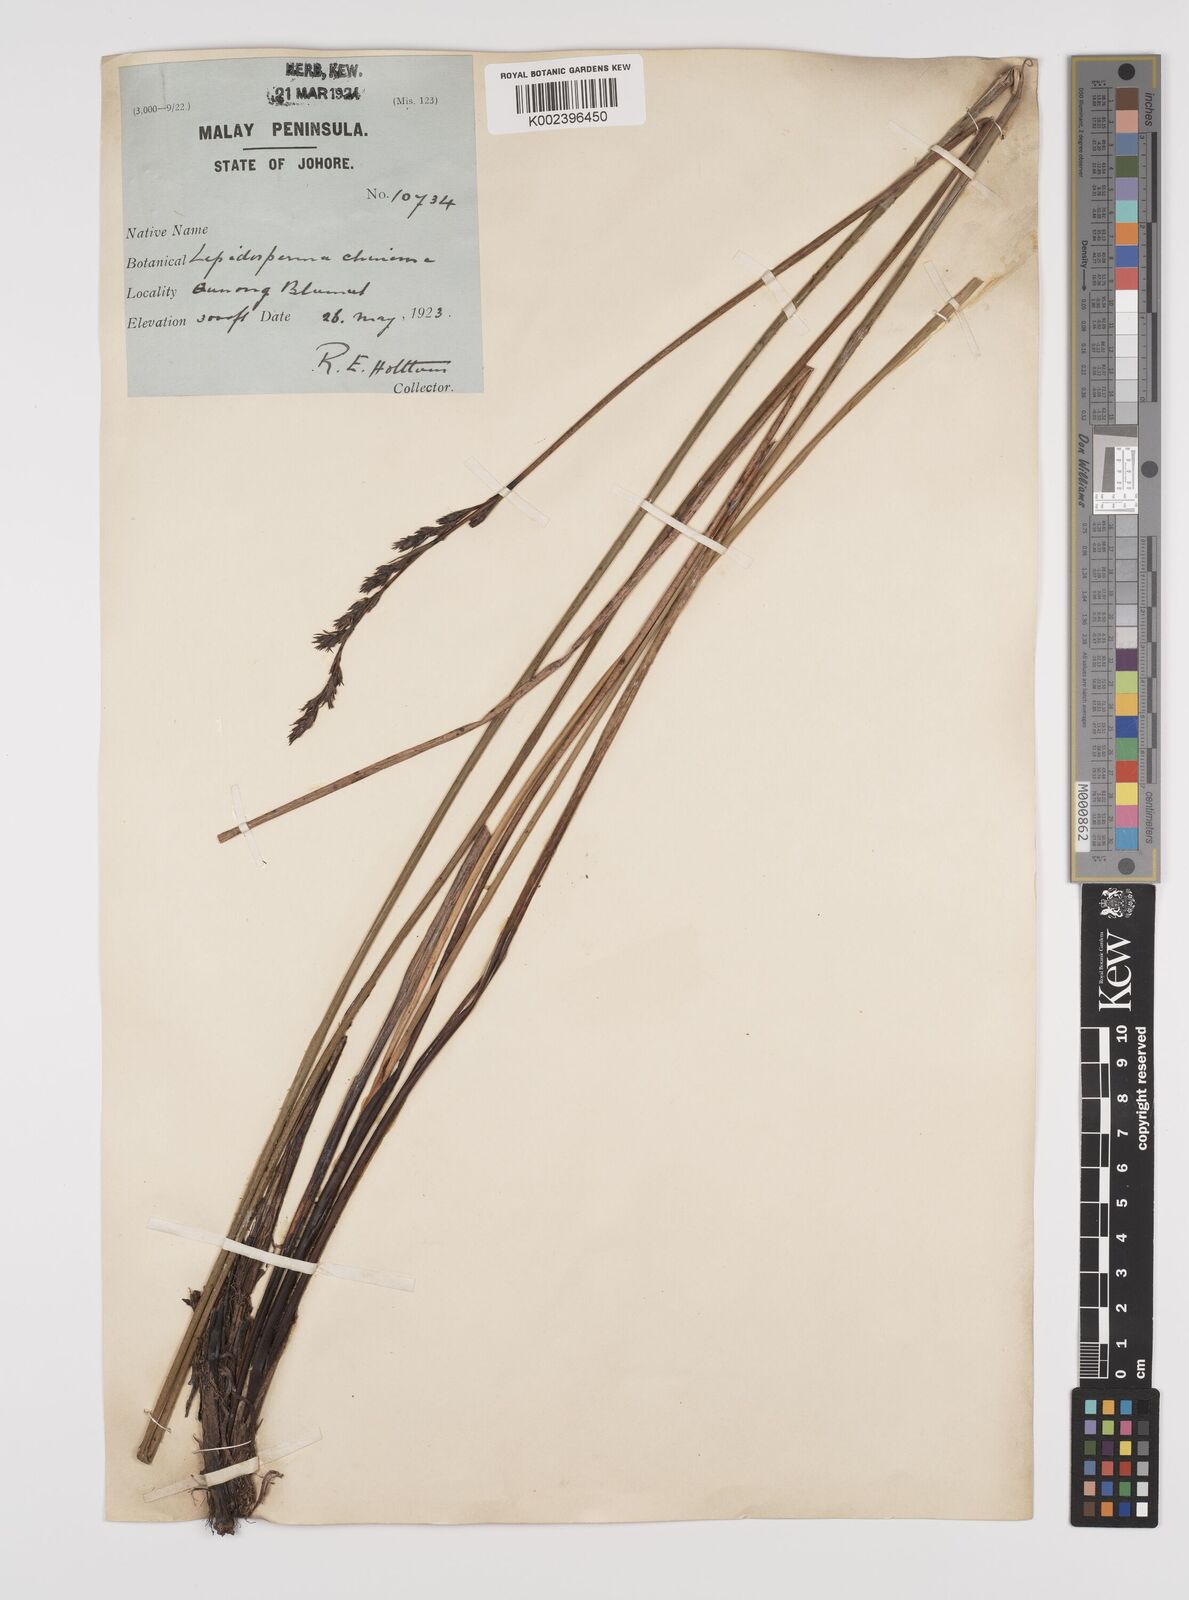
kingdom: Plantae
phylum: Tracheophyta
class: Liliopsida
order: Poales
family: Cyperaceae
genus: Lepidosperma
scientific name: Lepidosperma chinense
